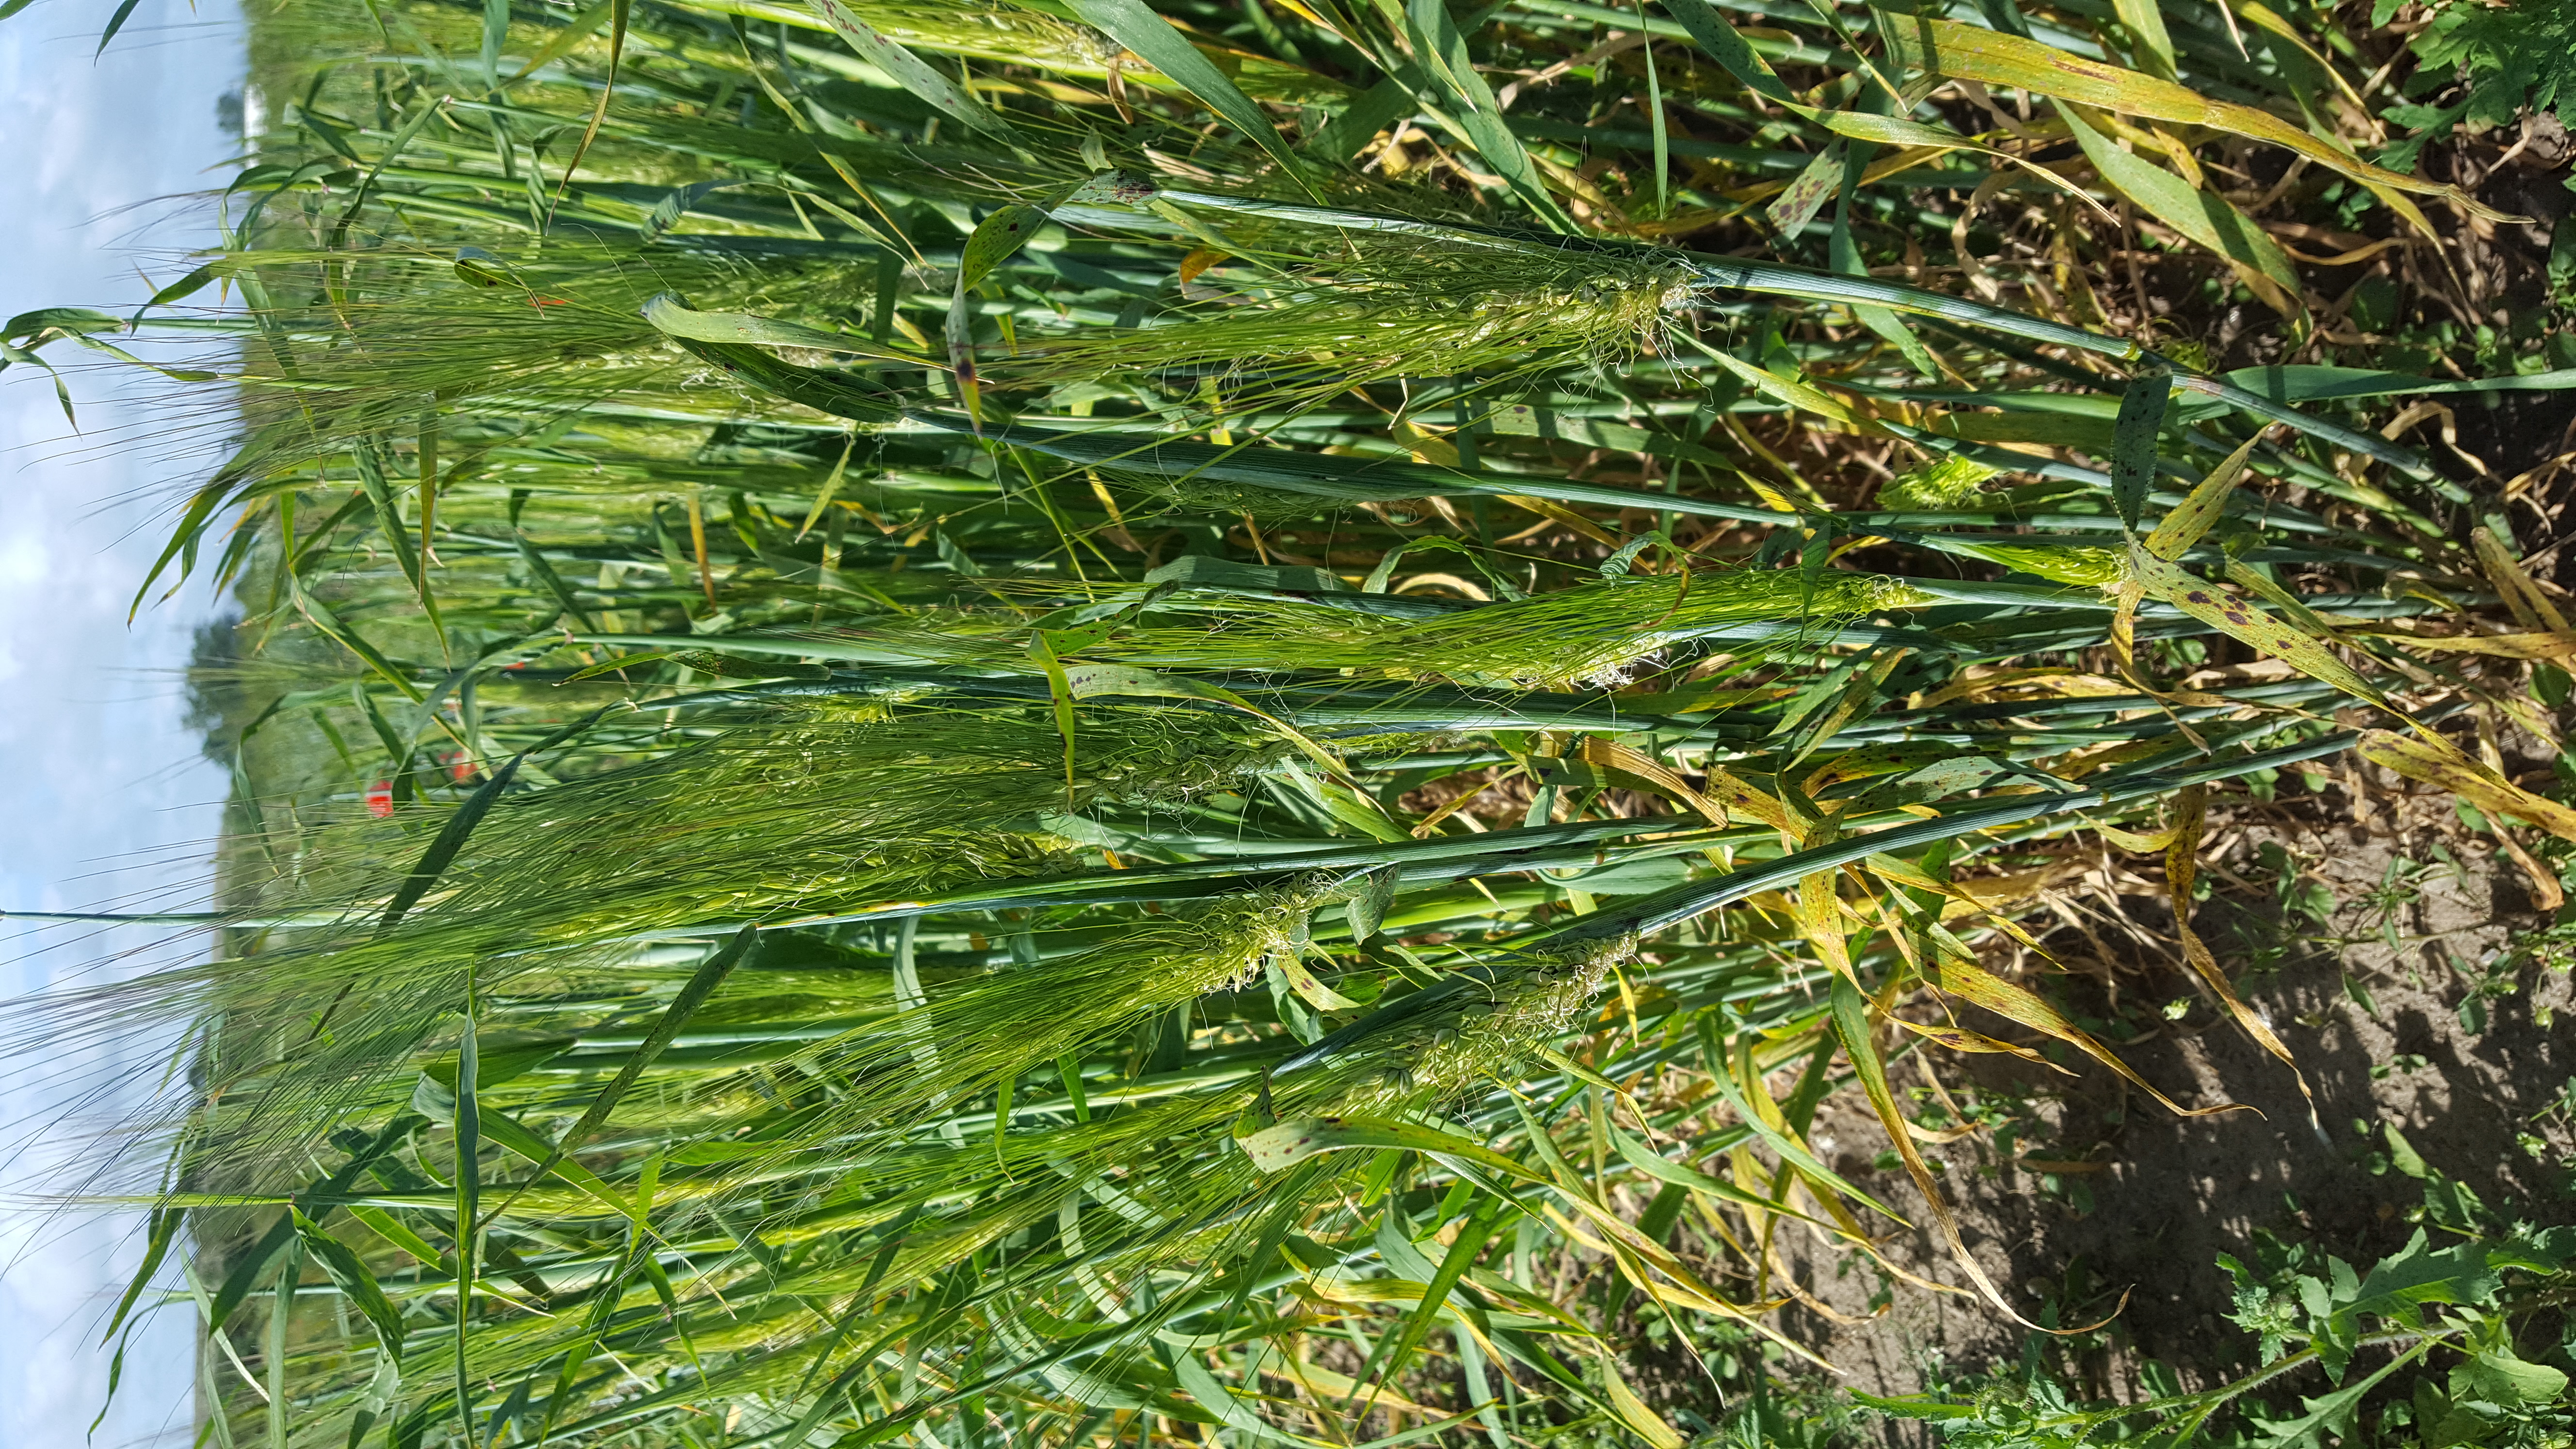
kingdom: Plantae
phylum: Tracheophyta
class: Liliopsida
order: Poales
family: Poaceae
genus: Hordeum
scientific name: Hordeum vulgare
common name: Common barley
